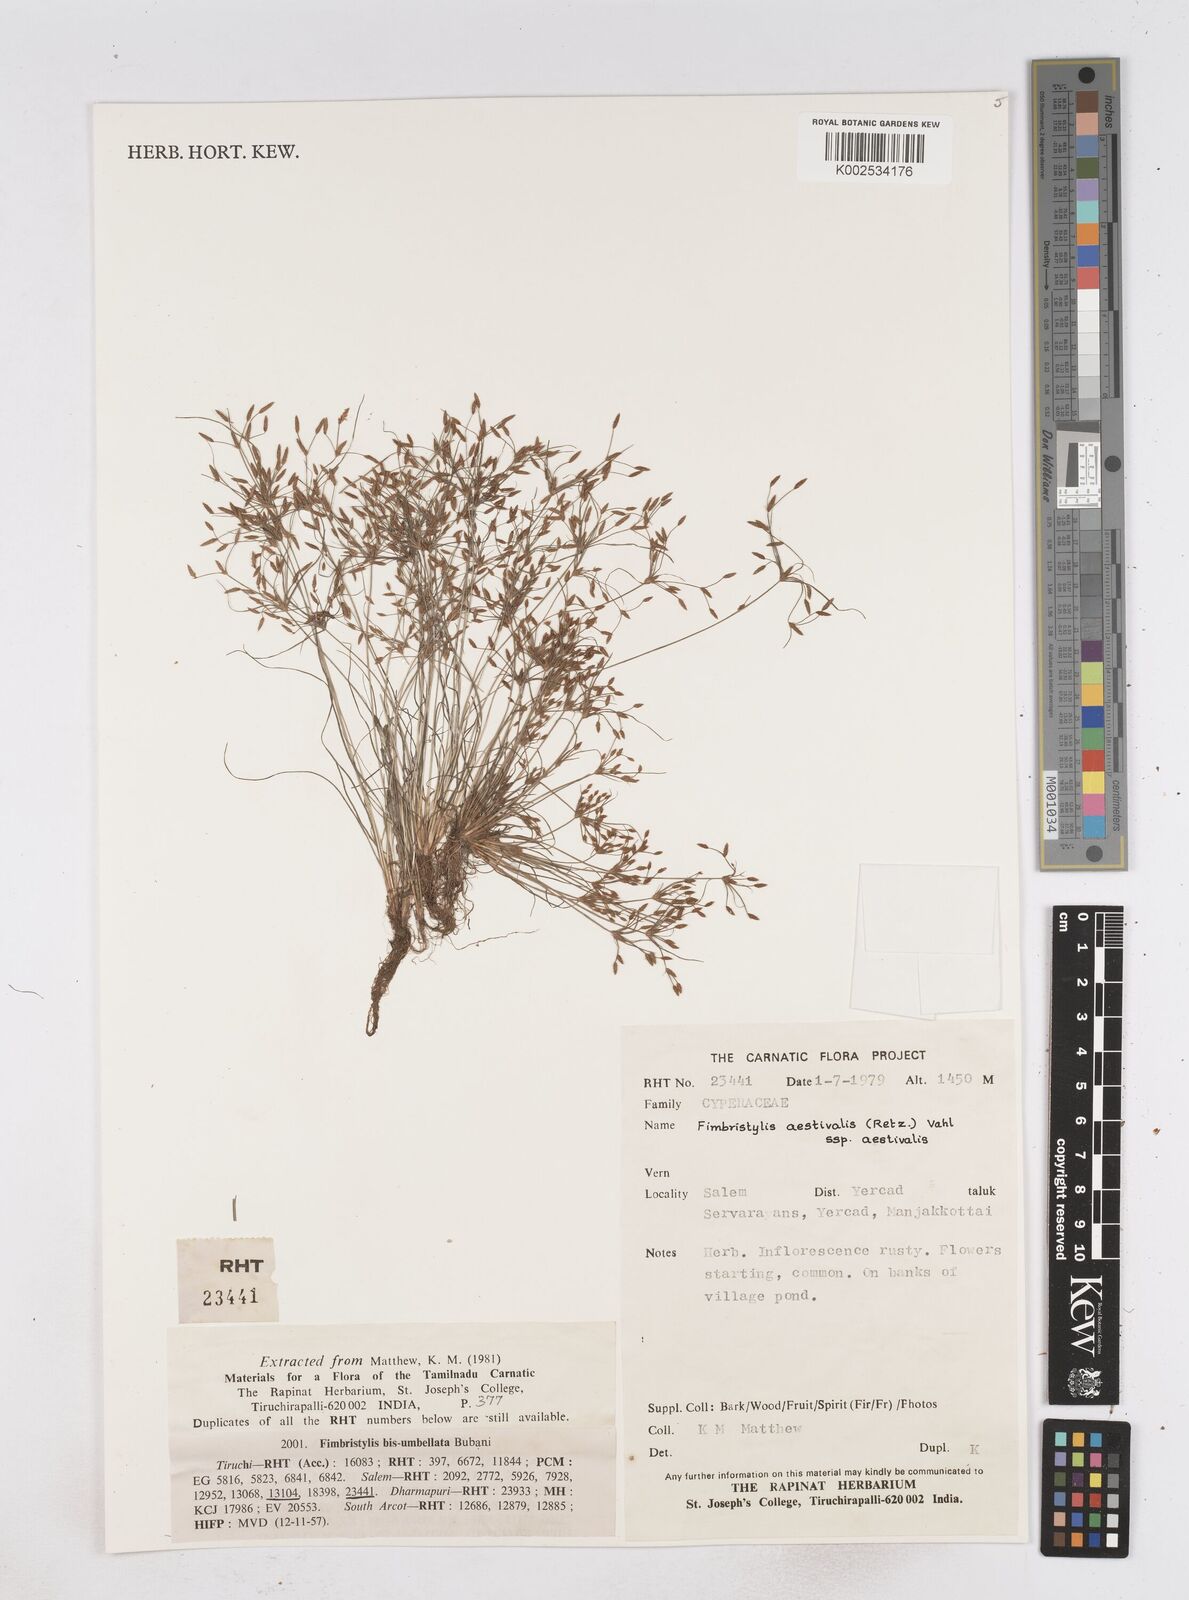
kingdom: Plantae
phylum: Tracheophyta
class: Liliopsida
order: Poales
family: Cyperaceae
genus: Fimbristylis
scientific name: Fimbristylis aestivalis
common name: Summer fimbry
